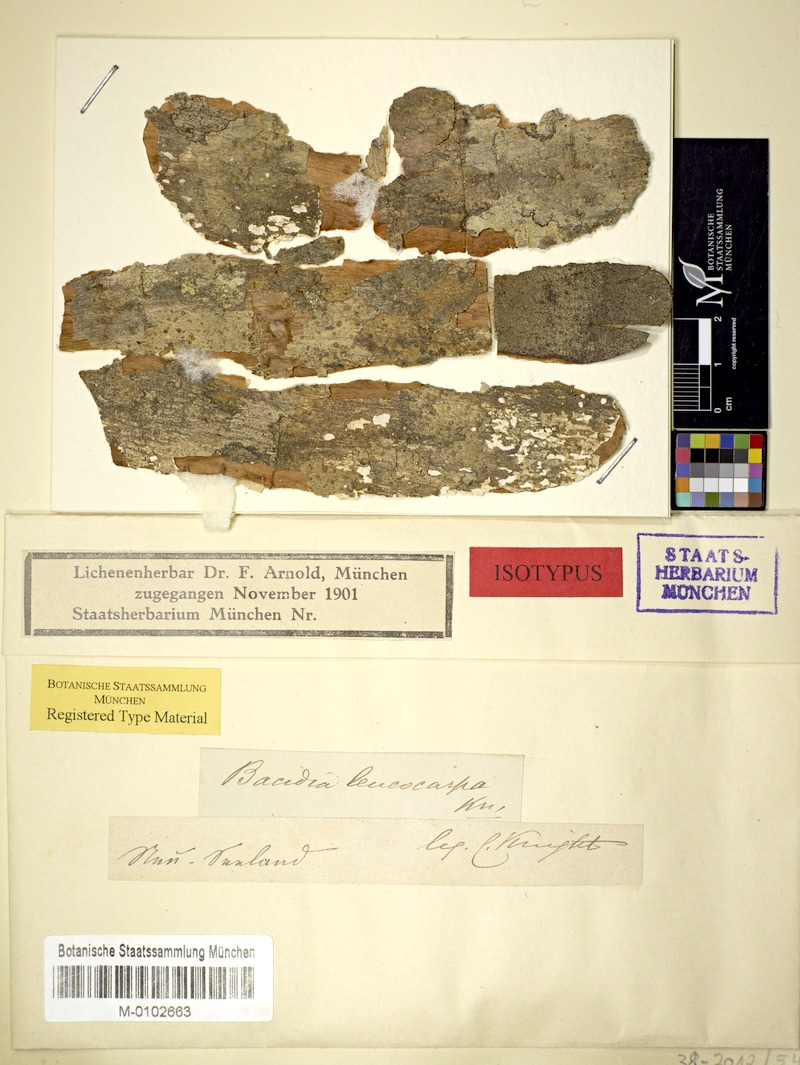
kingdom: Fungi
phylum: Ascomycota
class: Lecanoromycetes
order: Lecanorales
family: Ramalinaceae
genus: Bacidia
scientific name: Bacidia leucocarpa
